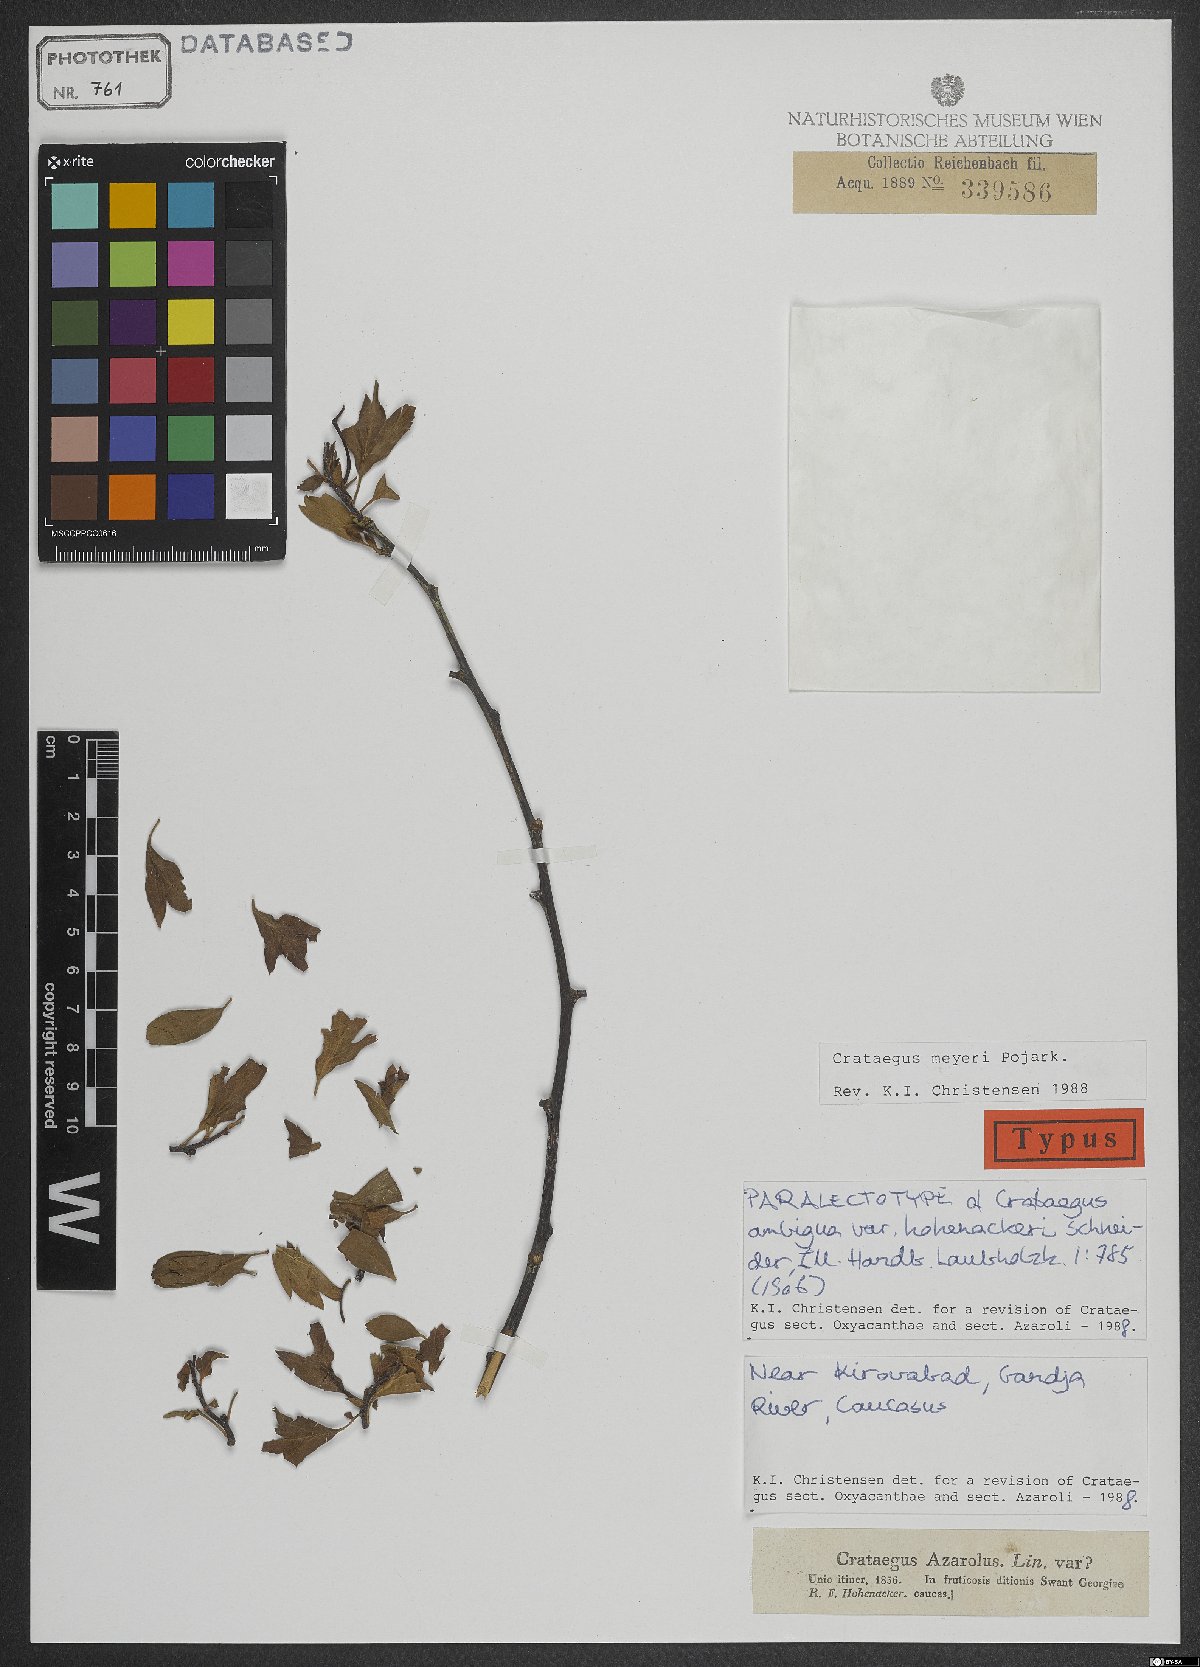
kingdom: Plantae
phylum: Tracheophyta
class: Magnoliopsida
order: Rosales
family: Rosaceae
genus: Crataegus
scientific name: Crataegus meyeri
